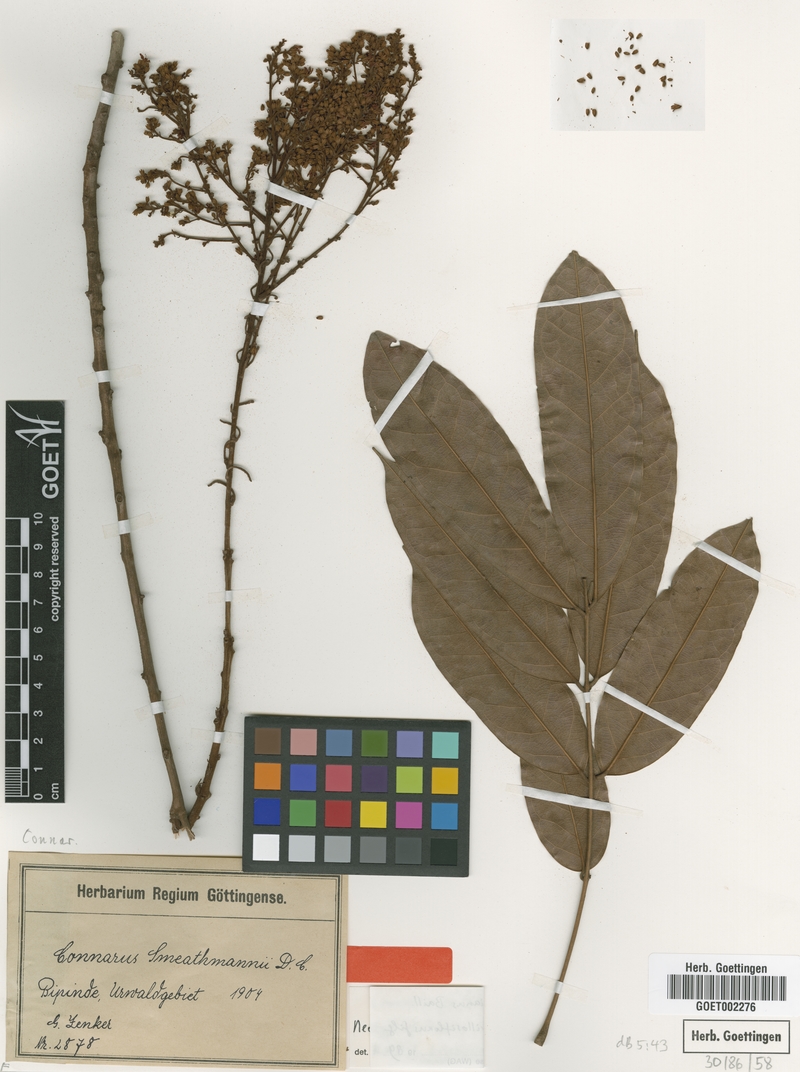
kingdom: Plantae
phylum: Tracheophyta
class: Magnoliopsida
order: Oxalidales
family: Connaraceae
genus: Connarus
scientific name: Connarus griffonianus
